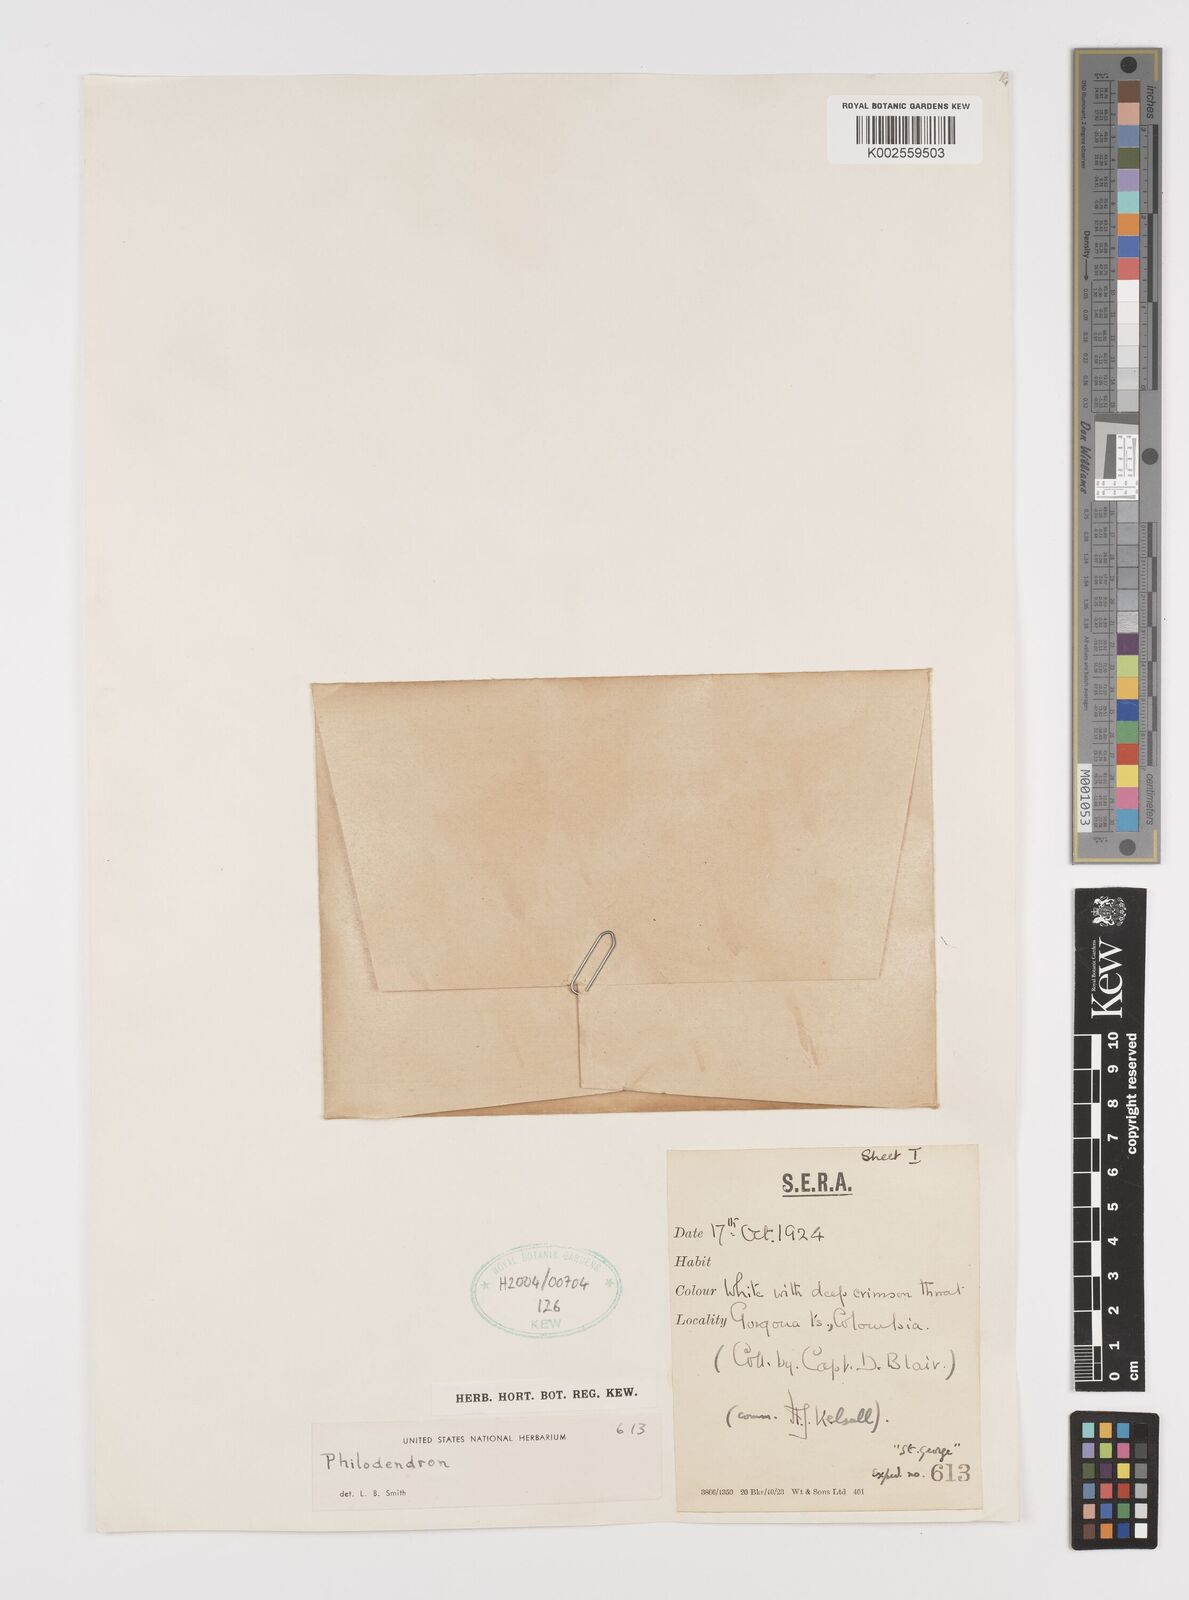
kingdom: Plantae
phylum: Tracheophyta
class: Liliopsida
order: Alismatales
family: Araceae
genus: Philodendron
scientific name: Philodendron
